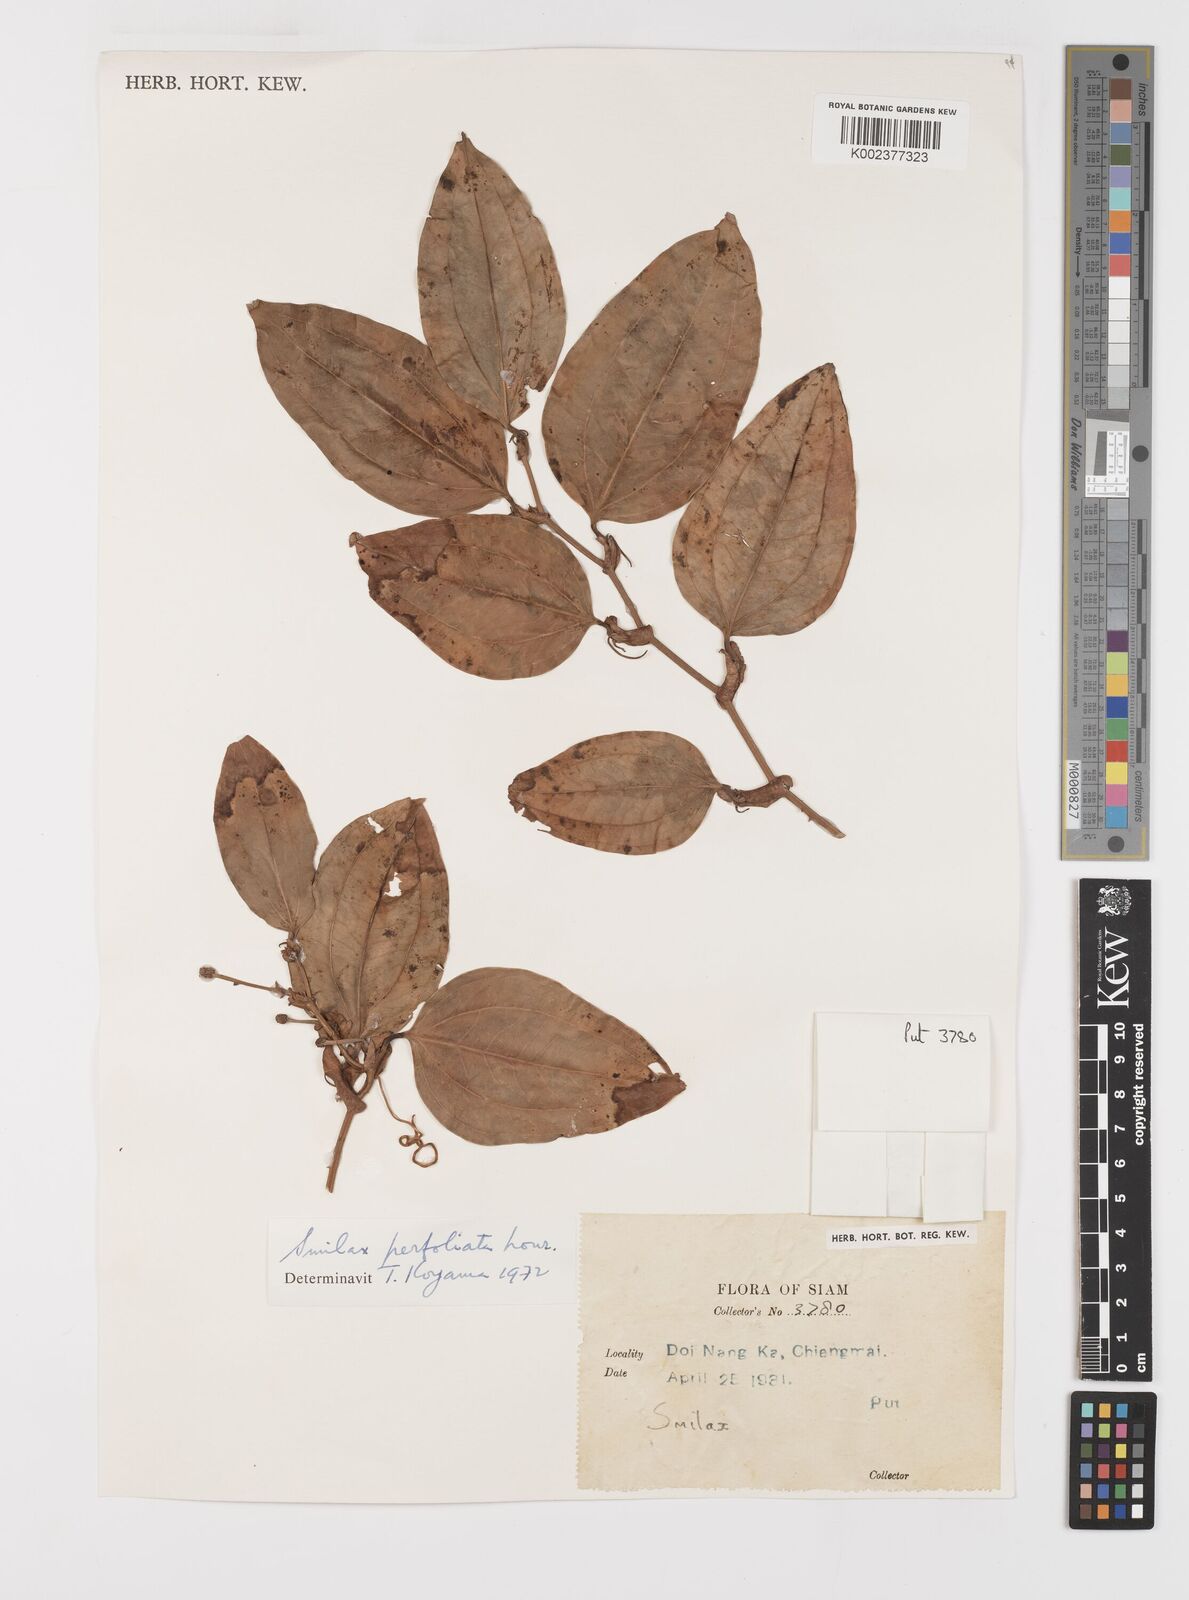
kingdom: Plantae
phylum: Tracheophyta
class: Liliopsida
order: Liliales
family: Smilacaceae
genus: Smilax
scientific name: Smilax perfoliata
